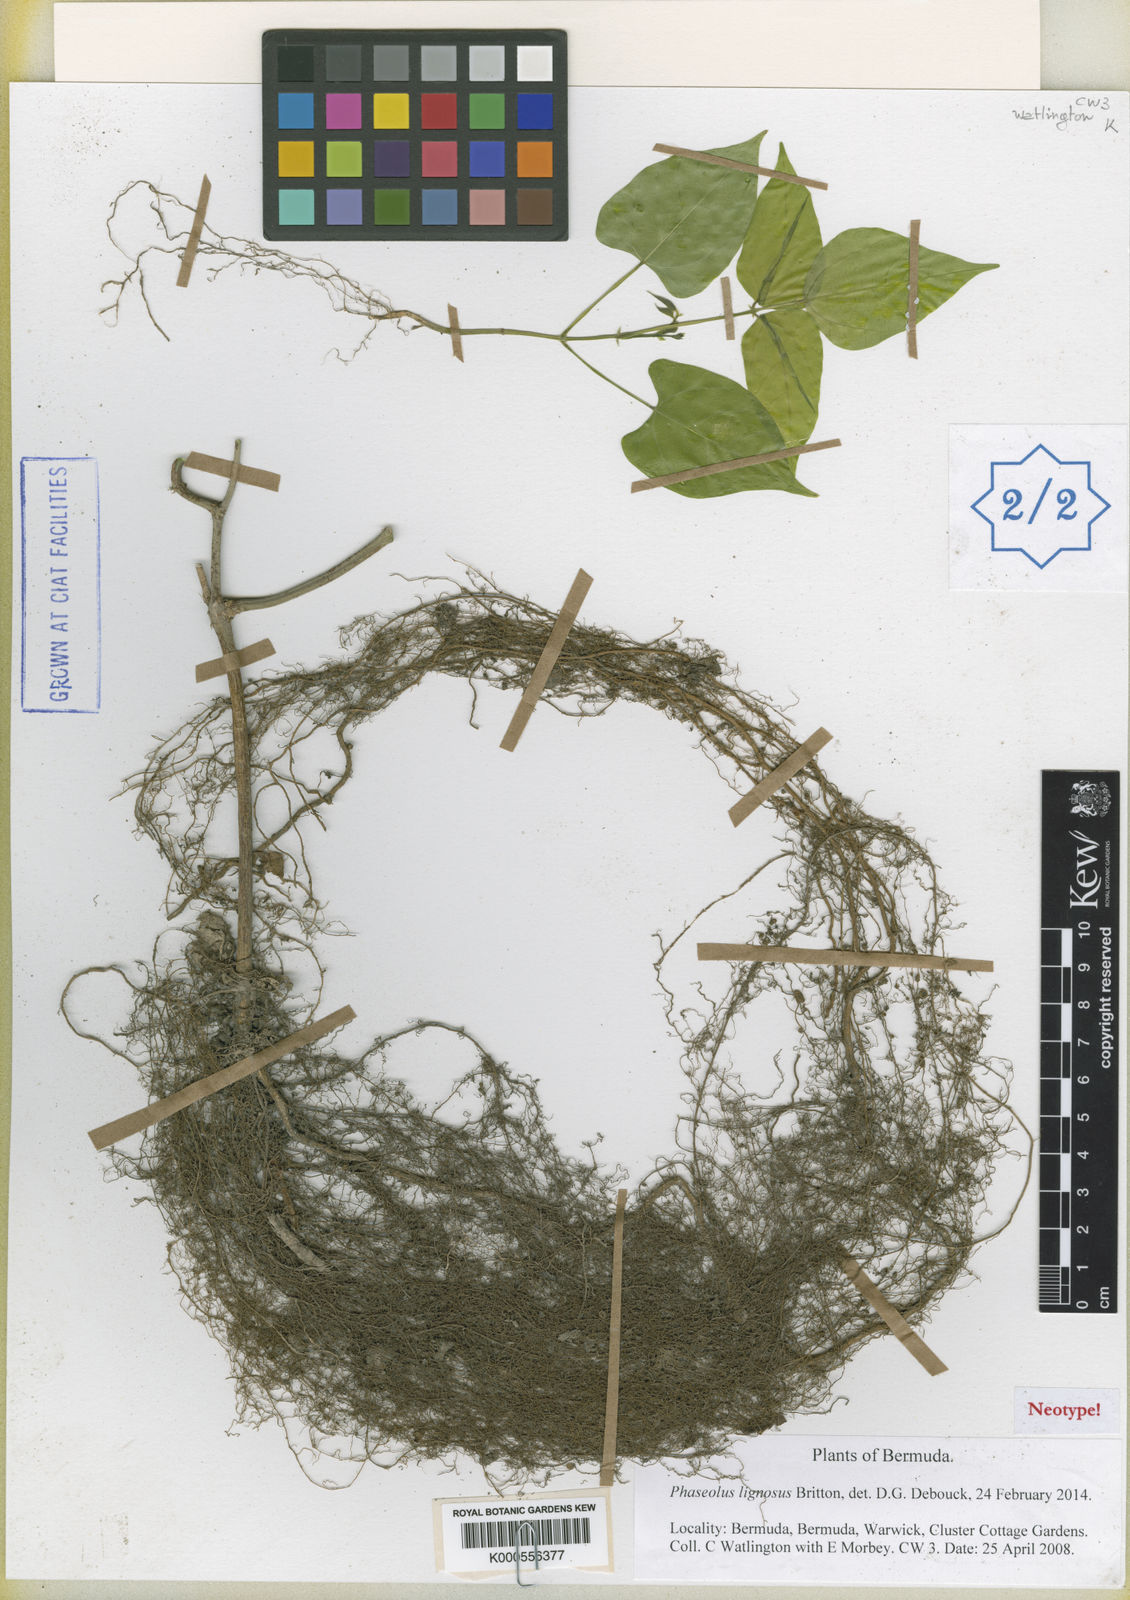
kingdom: Plantae
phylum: Tracheophyta
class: Magnoliopsida
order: Fabales
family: Fabaceae
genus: Phaseolus
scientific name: Phaseolus lignosus
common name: Bermuda bean
